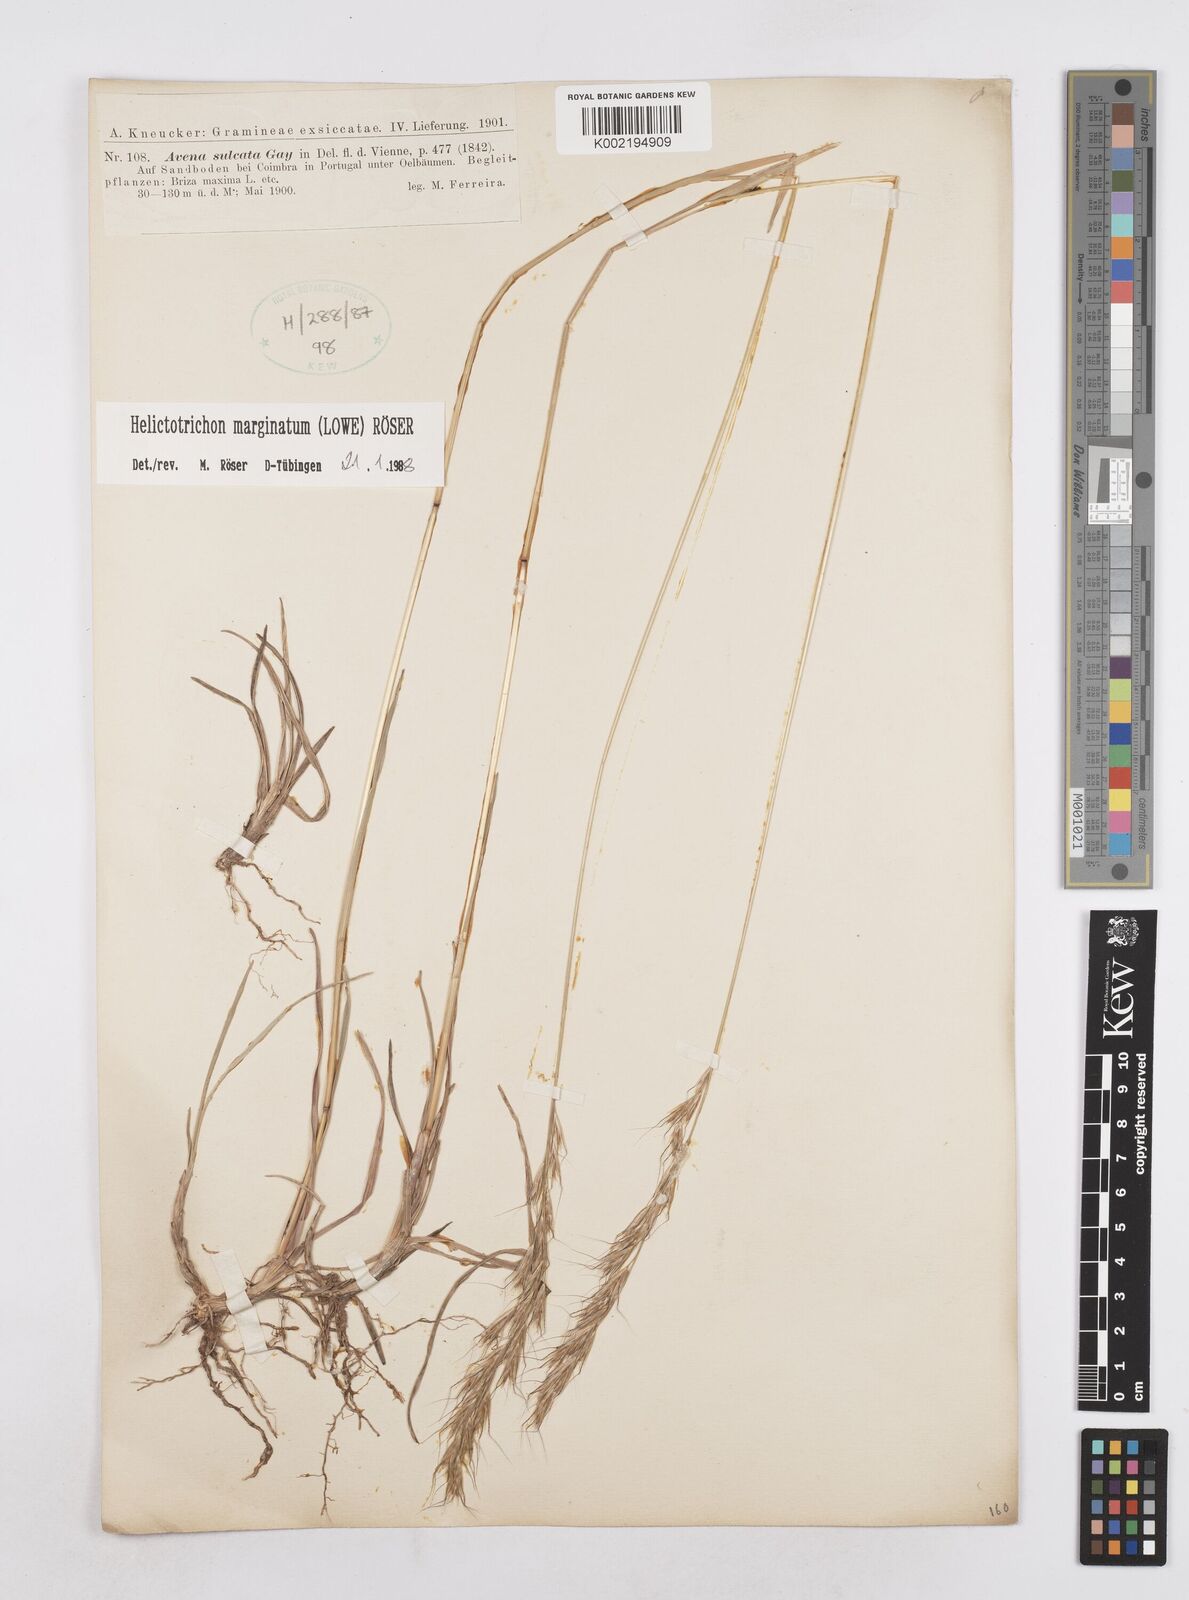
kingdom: Plantae
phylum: Tracheophyta
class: Liliopsida
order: Poales
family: Poaceae
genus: Helictotrichon
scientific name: Helictotrichon
